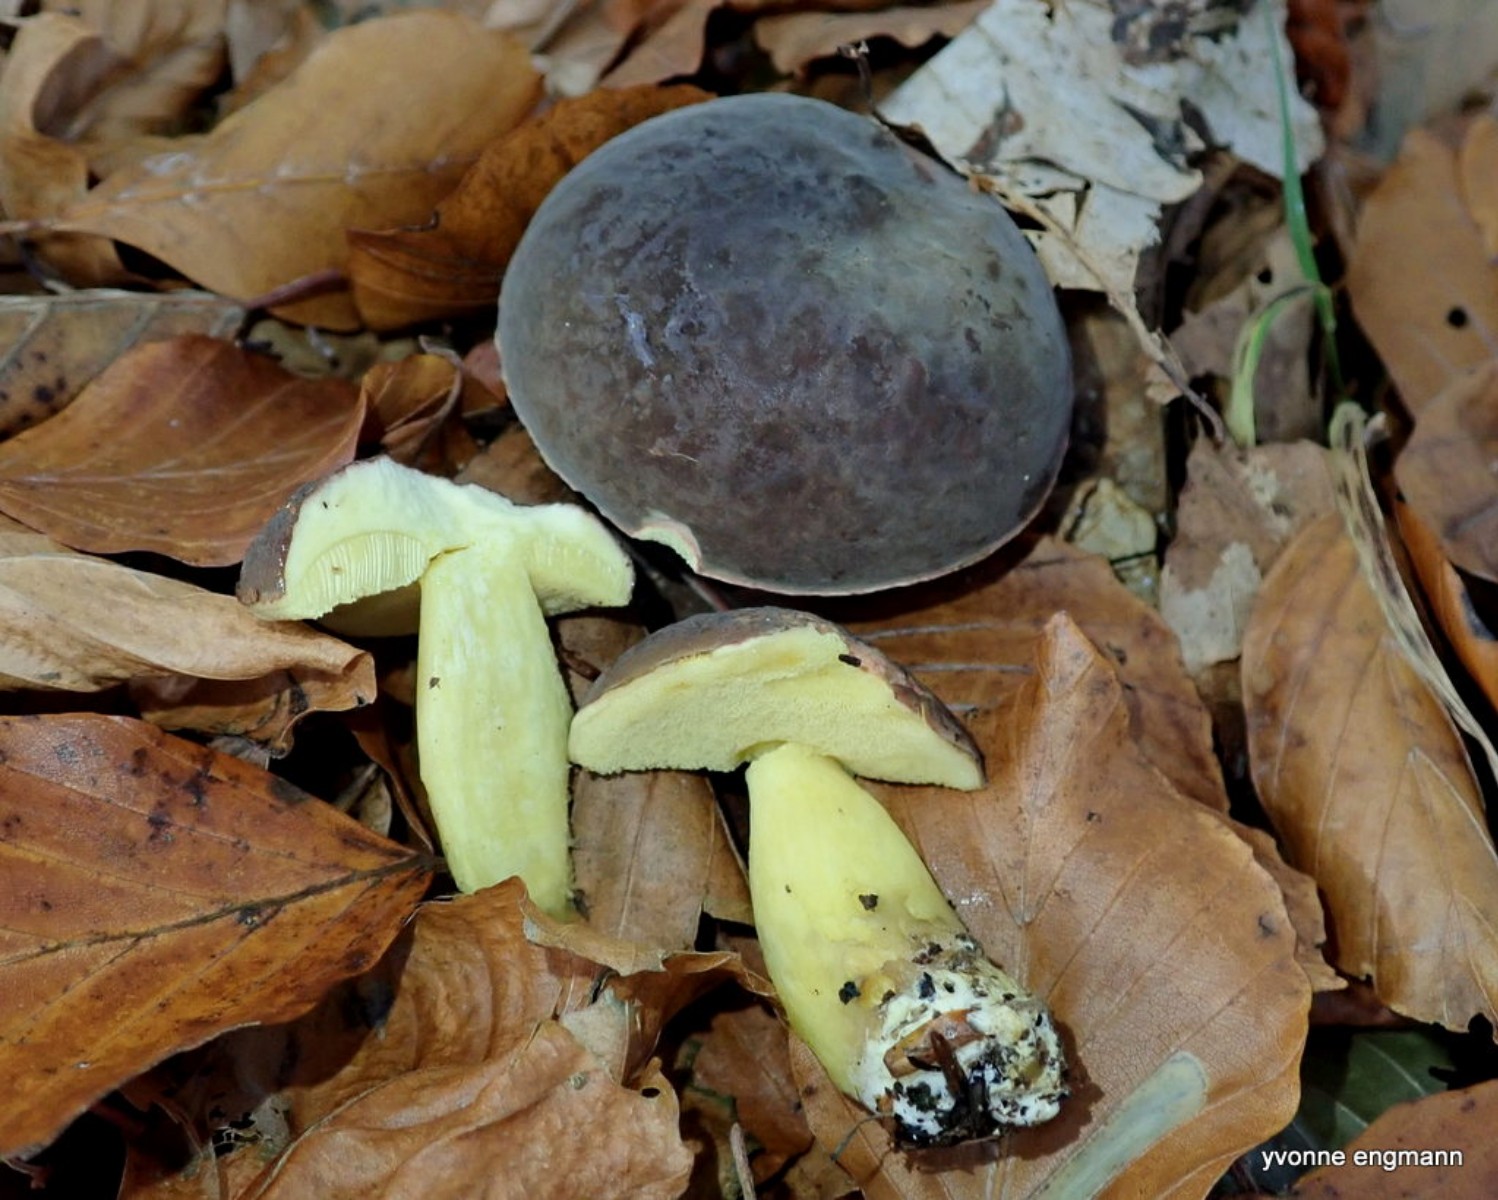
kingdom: Fungi
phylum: Basidiomycota
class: Agaricomycetes
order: Boletales
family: Boletaceae
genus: Xerocomellus
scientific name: Xerocomellus pruinatus
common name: dugget rørhat
